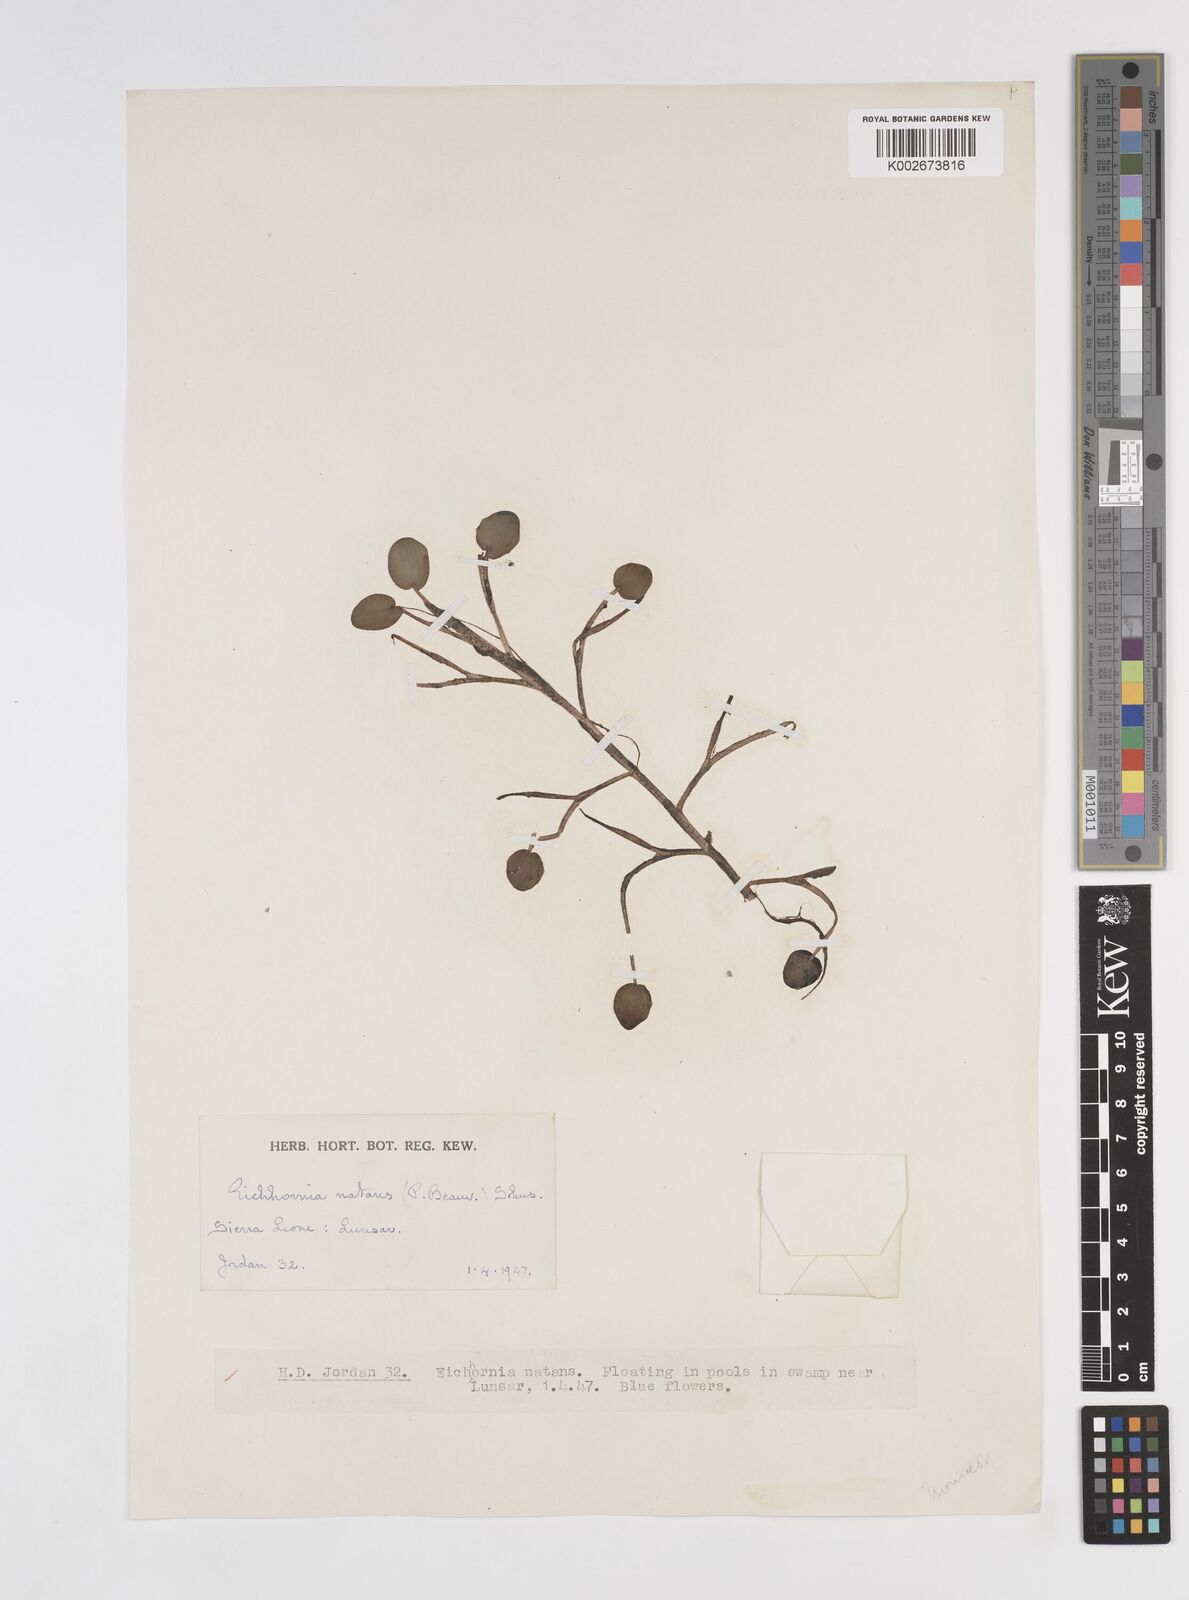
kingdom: Plantae
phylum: Tracheophyta
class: Liliopsida
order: Commelinales
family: Pontederiaceae
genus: Pontederia
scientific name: Pontederia diversifolia
